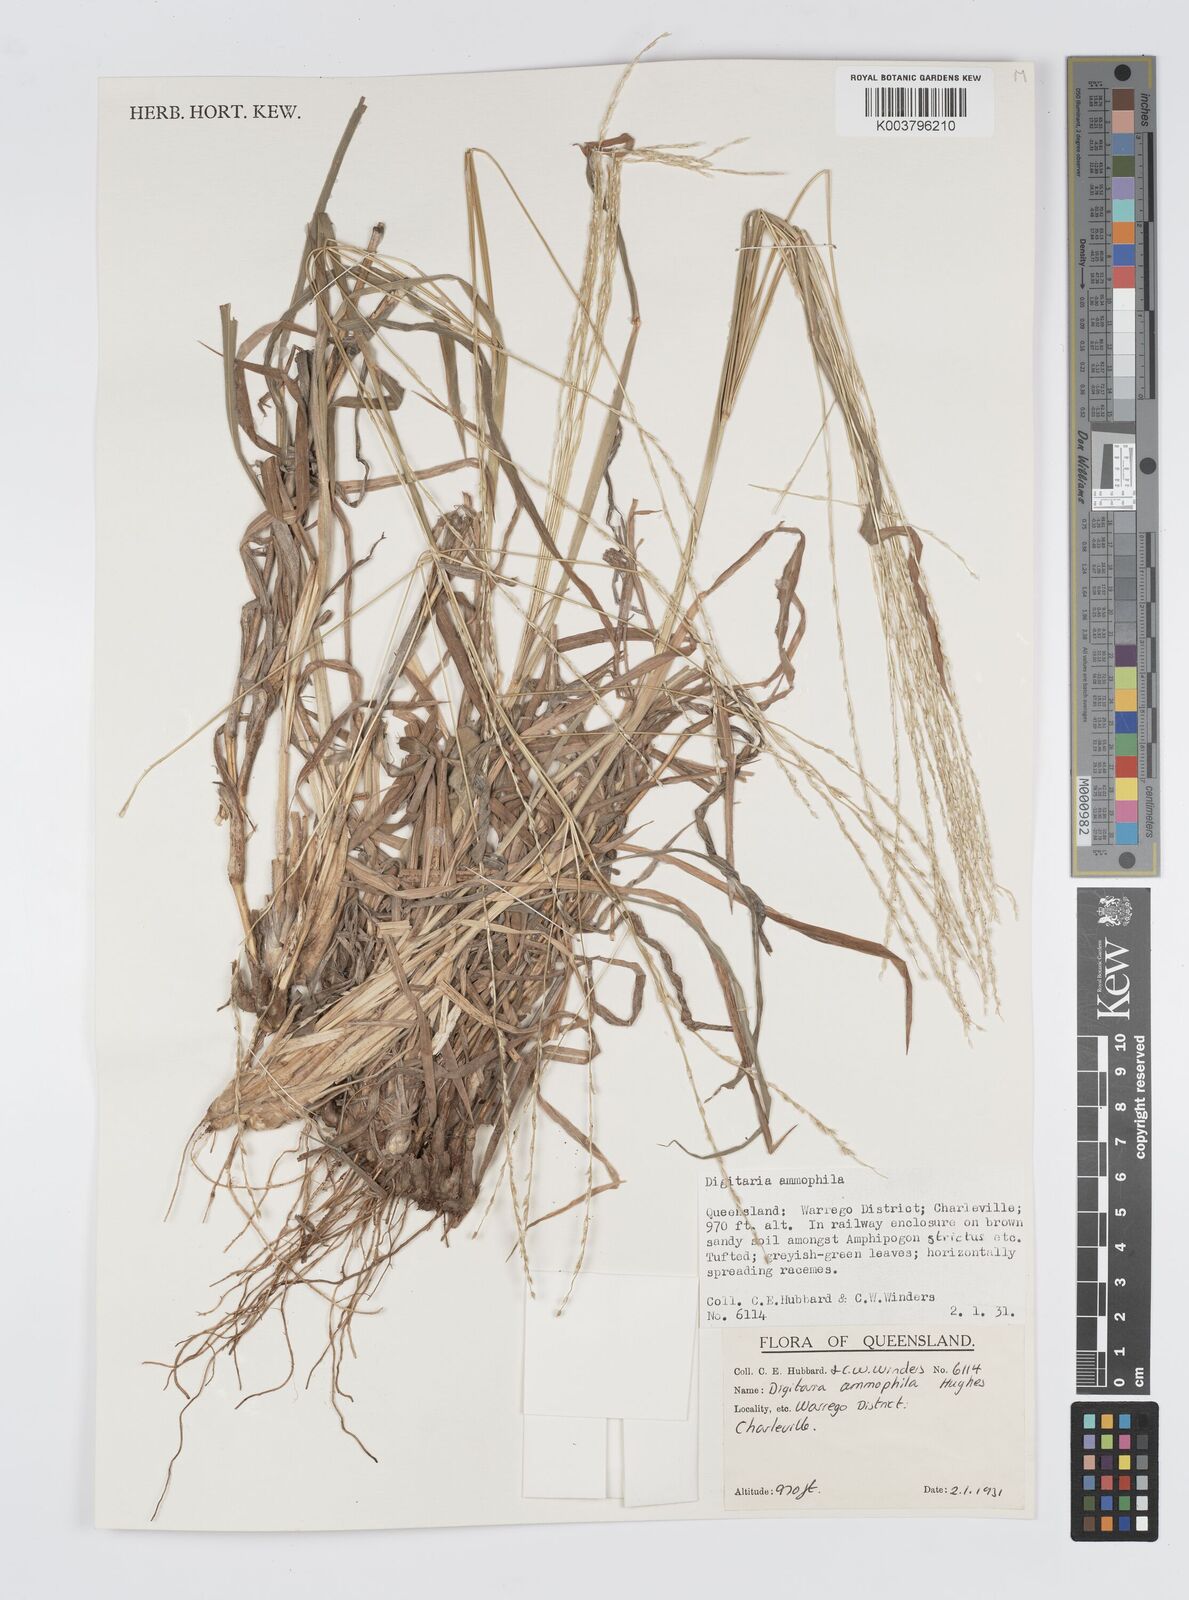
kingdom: Plantae
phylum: Tracheophyta
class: Liliopsida
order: Poales
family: Poaceae
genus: Digitaria
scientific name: Digitaria ammophila
